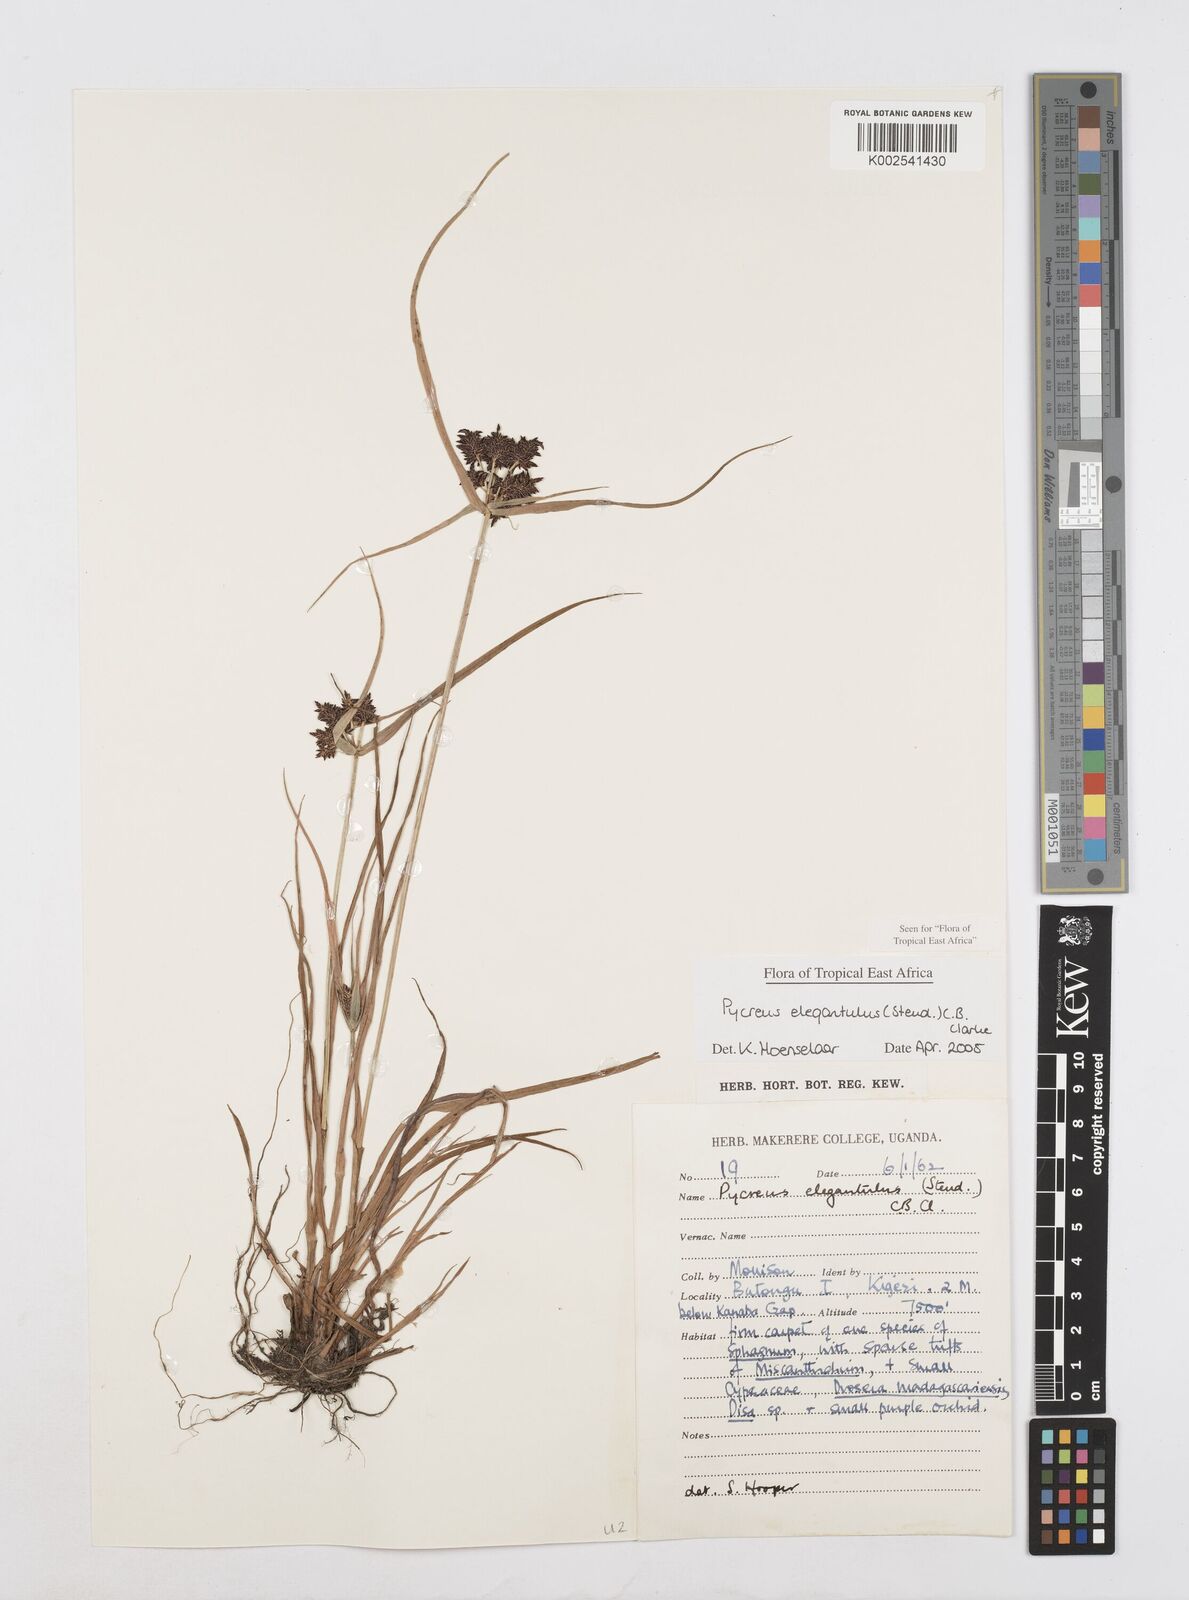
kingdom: Plantae
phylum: Tracheophyta
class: Liliopsida
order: Poales
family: Cyperaceae
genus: Cyperus
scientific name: Cyperus elegantulus
